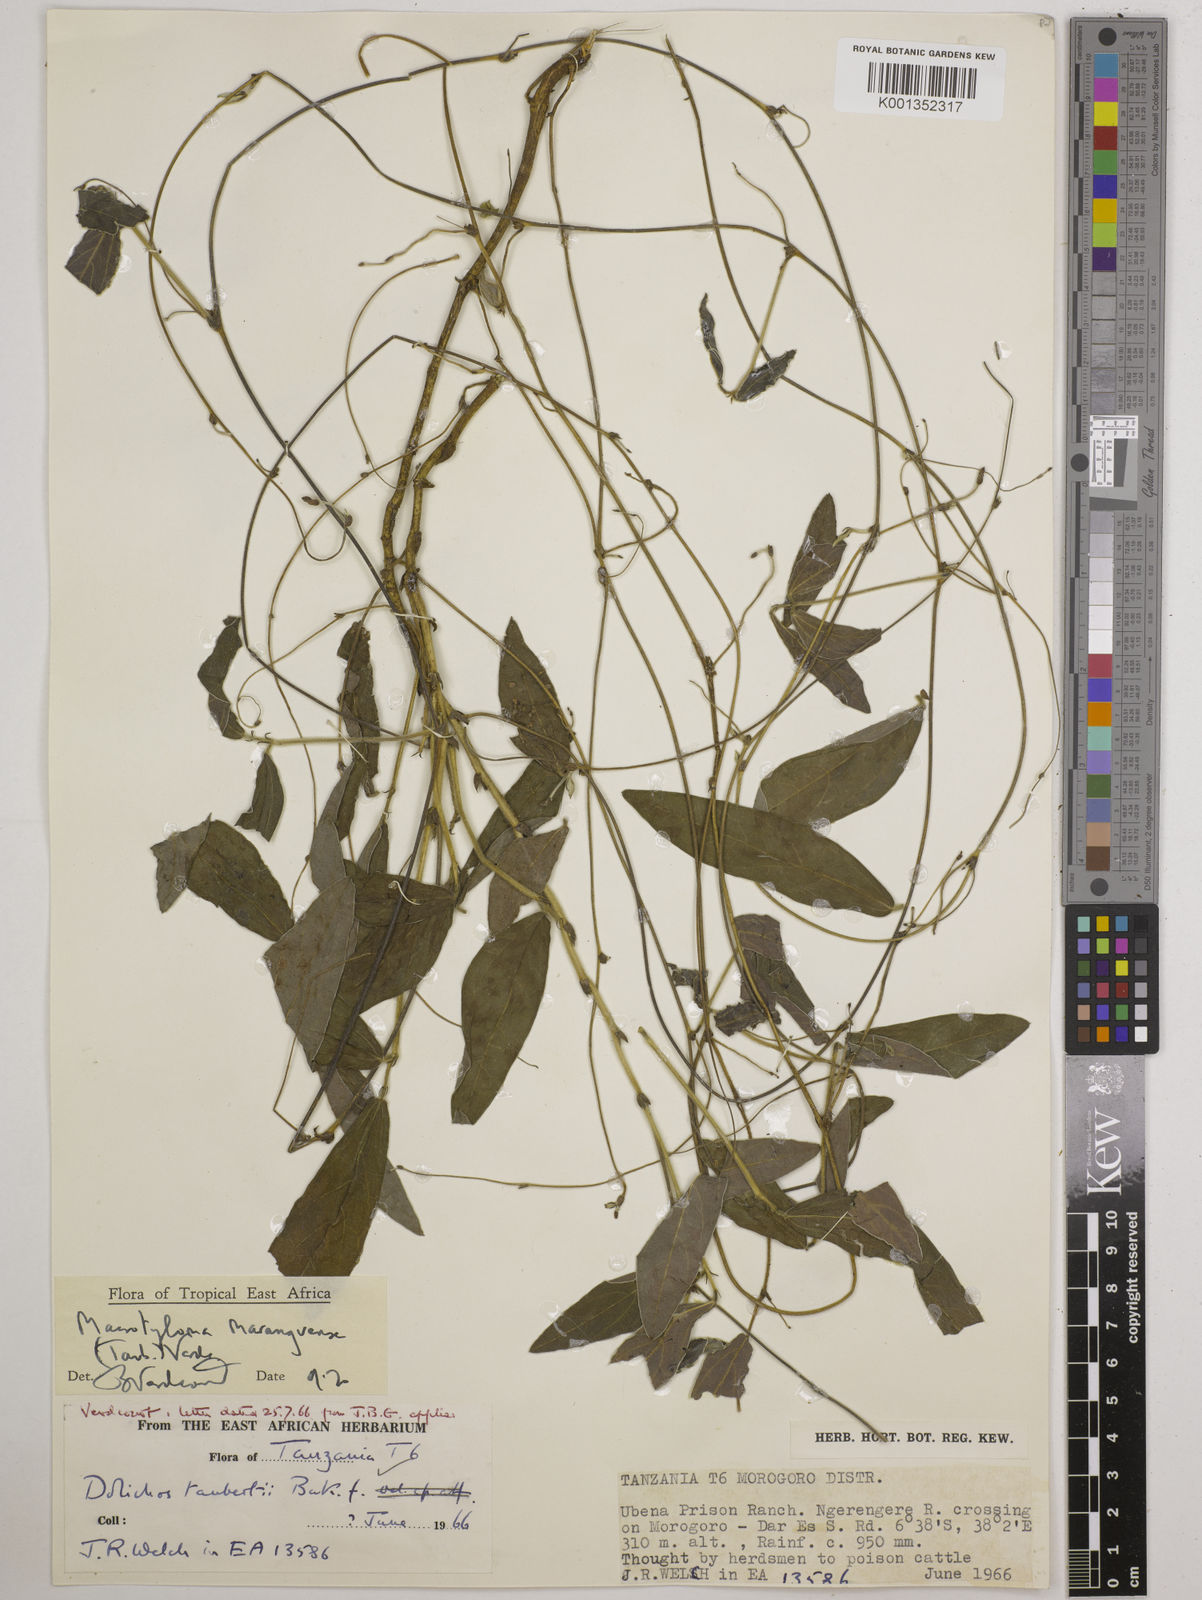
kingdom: Plantae
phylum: Tracheophyta
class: Magnoliopsida
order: Fabales
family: Fabaceae
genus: Macrotyloma
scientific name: Macrotyloma maranguense
